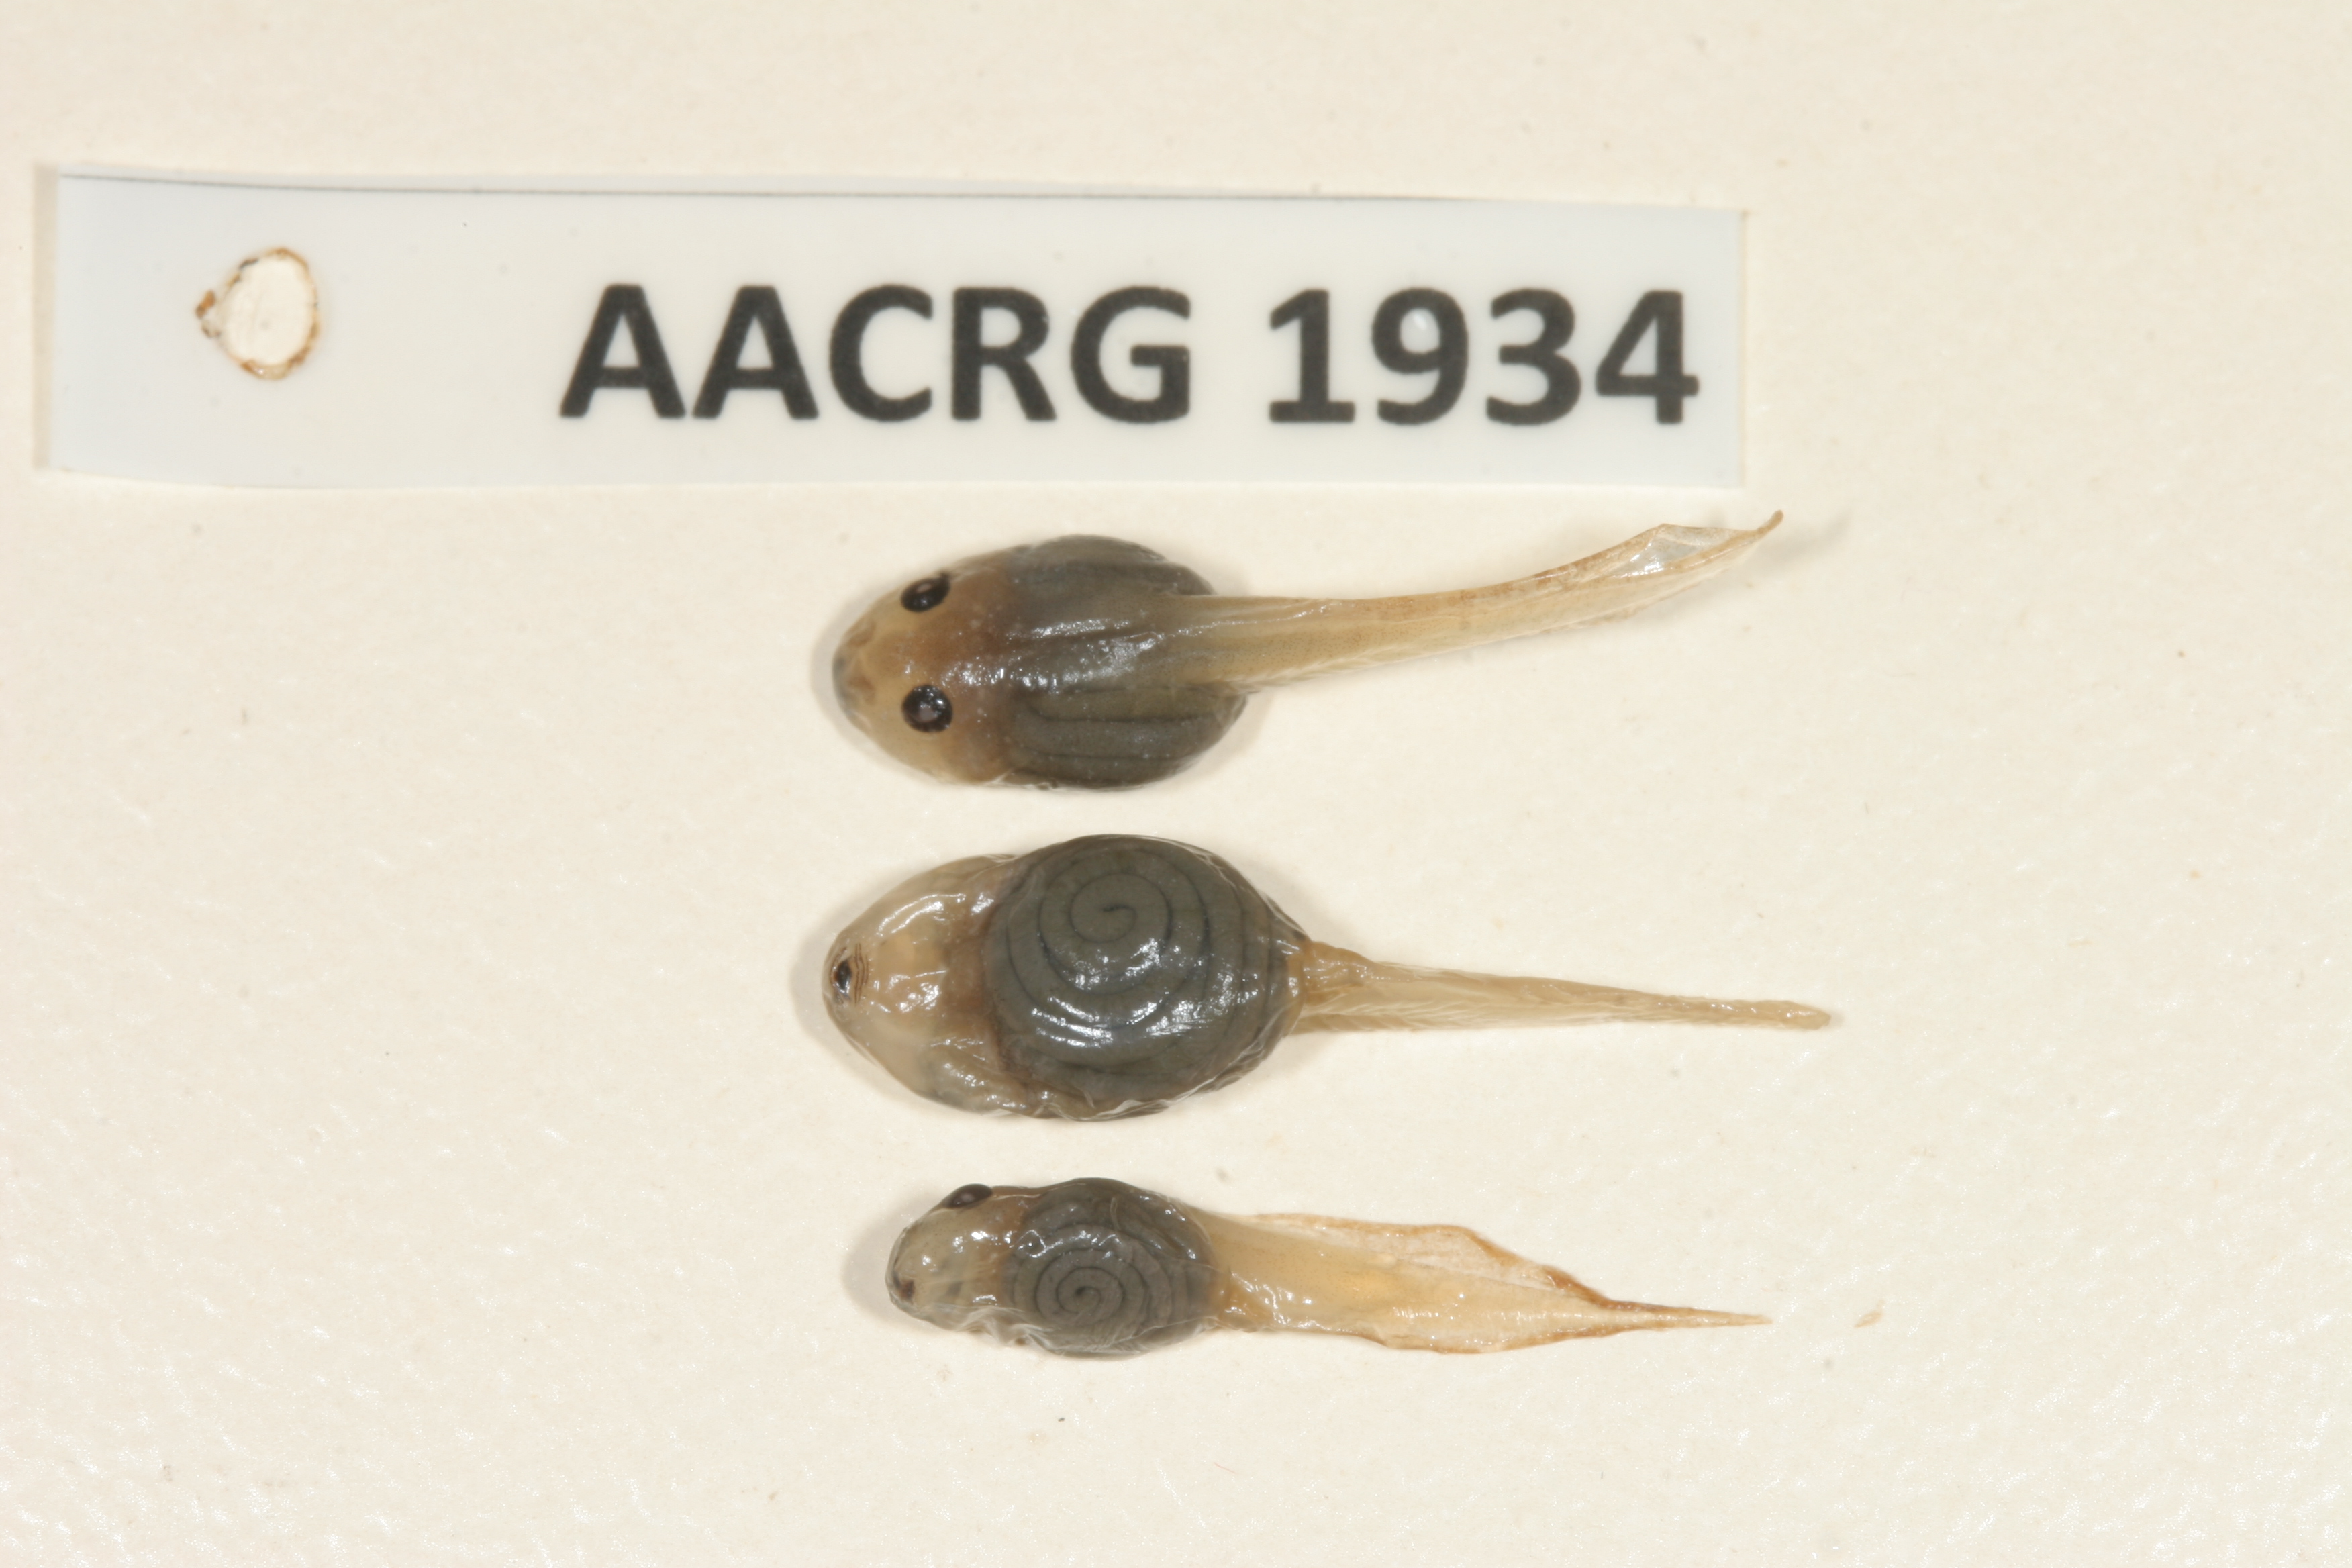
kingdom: Animalia
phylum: Chordata
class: Amphibia
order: Anura
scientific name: Anura
